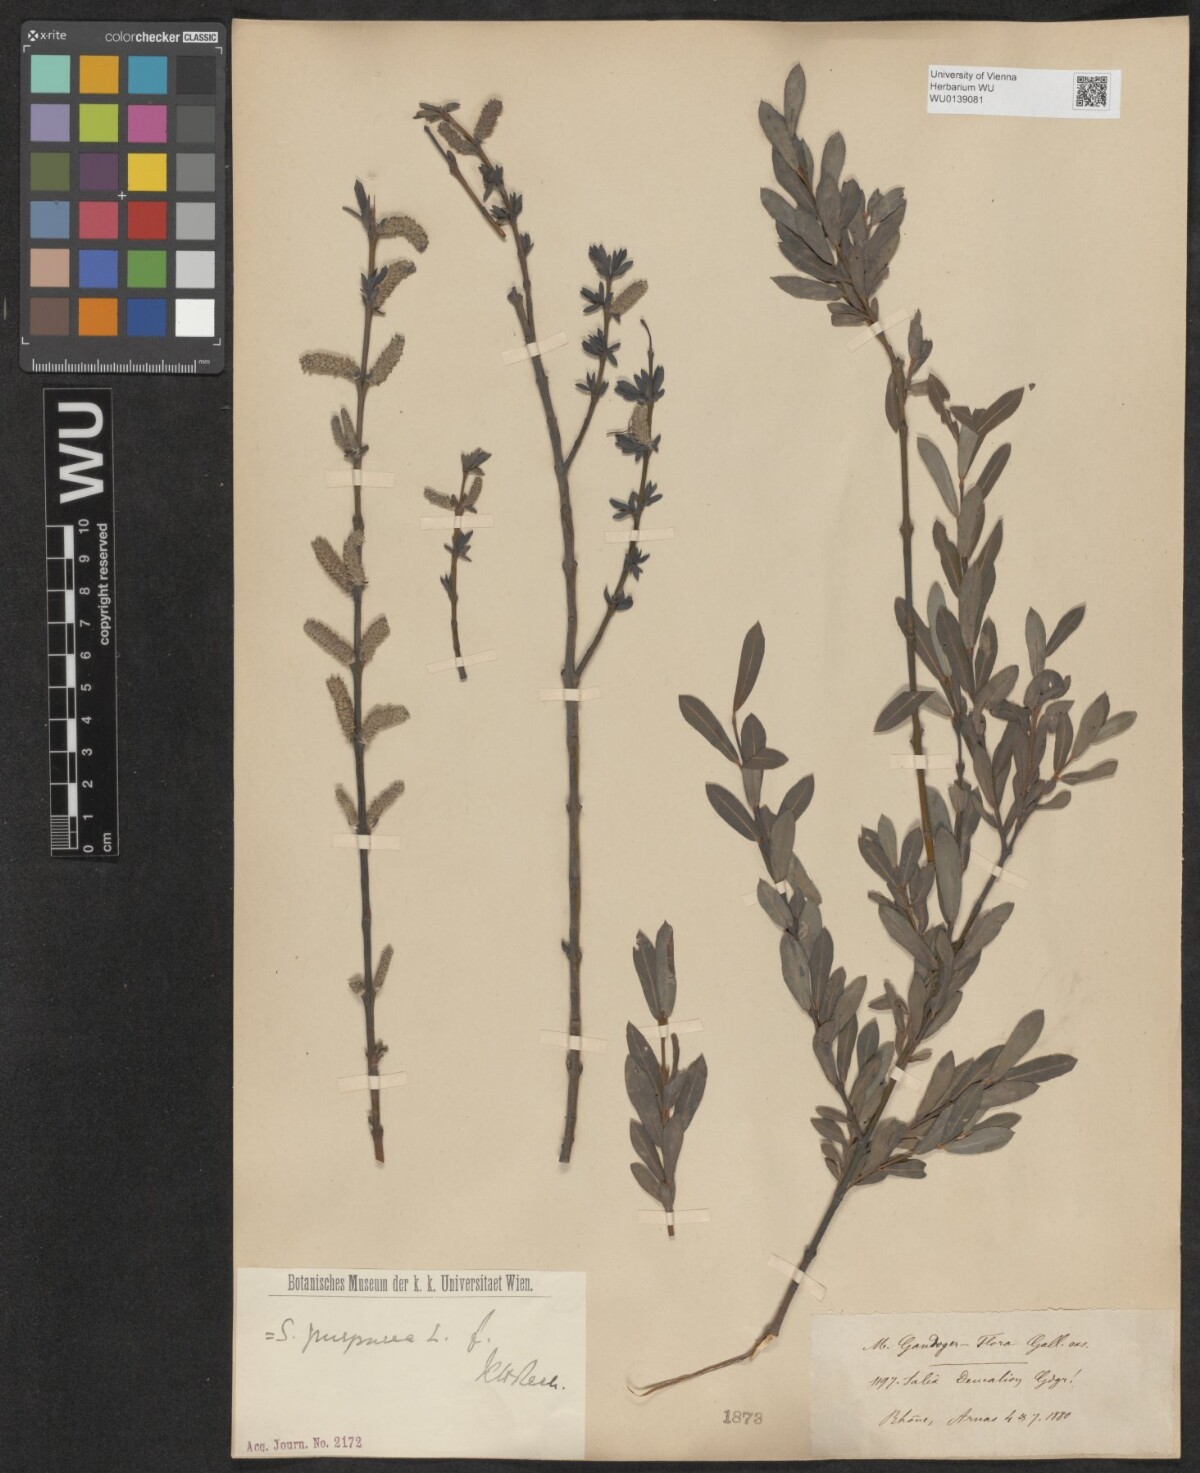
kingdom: Plantae
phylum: Tracheophyta
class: Magnoliopsida
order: Malpighiales
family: Salicaceae
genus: Salix
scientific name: Salix purpurea
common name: Purple willow
